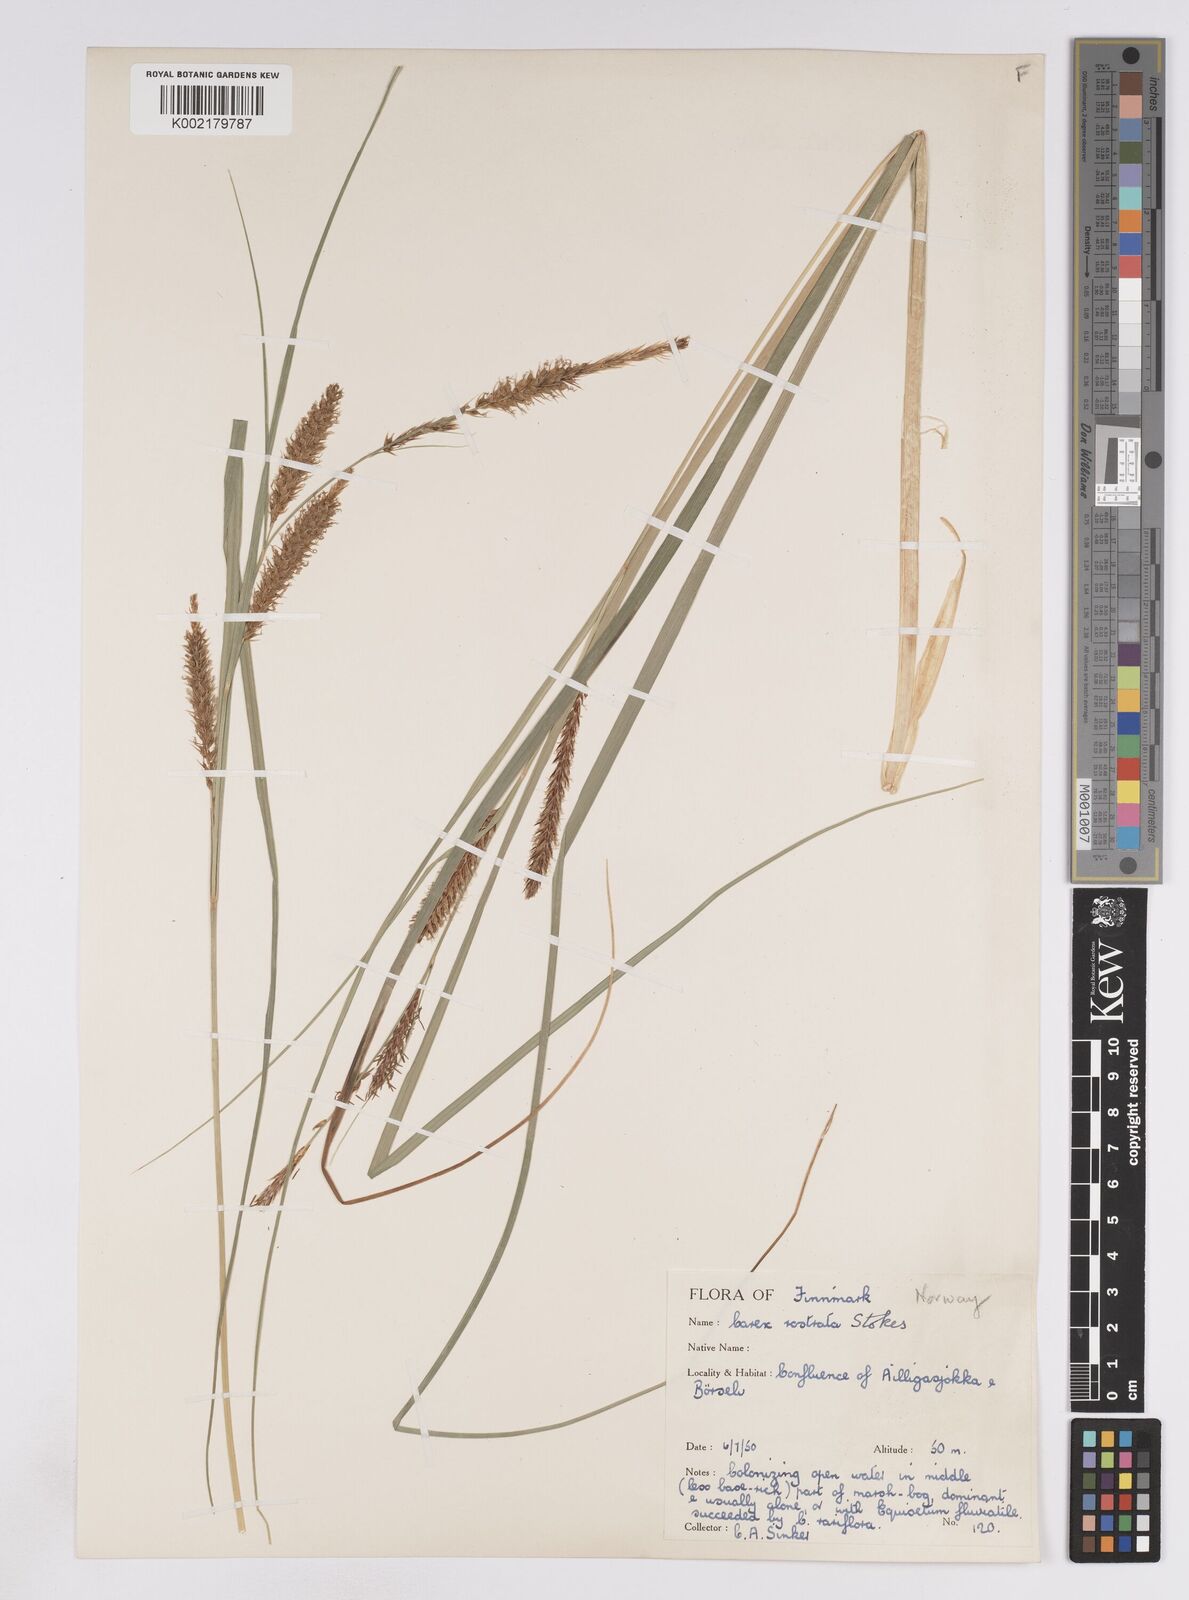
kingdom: Plantae
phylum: Tracheophyta
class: Liliopsida
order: Poales
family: Cyperaceae
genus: Carex
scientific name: Carex rostrata
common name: Bottle sedge
